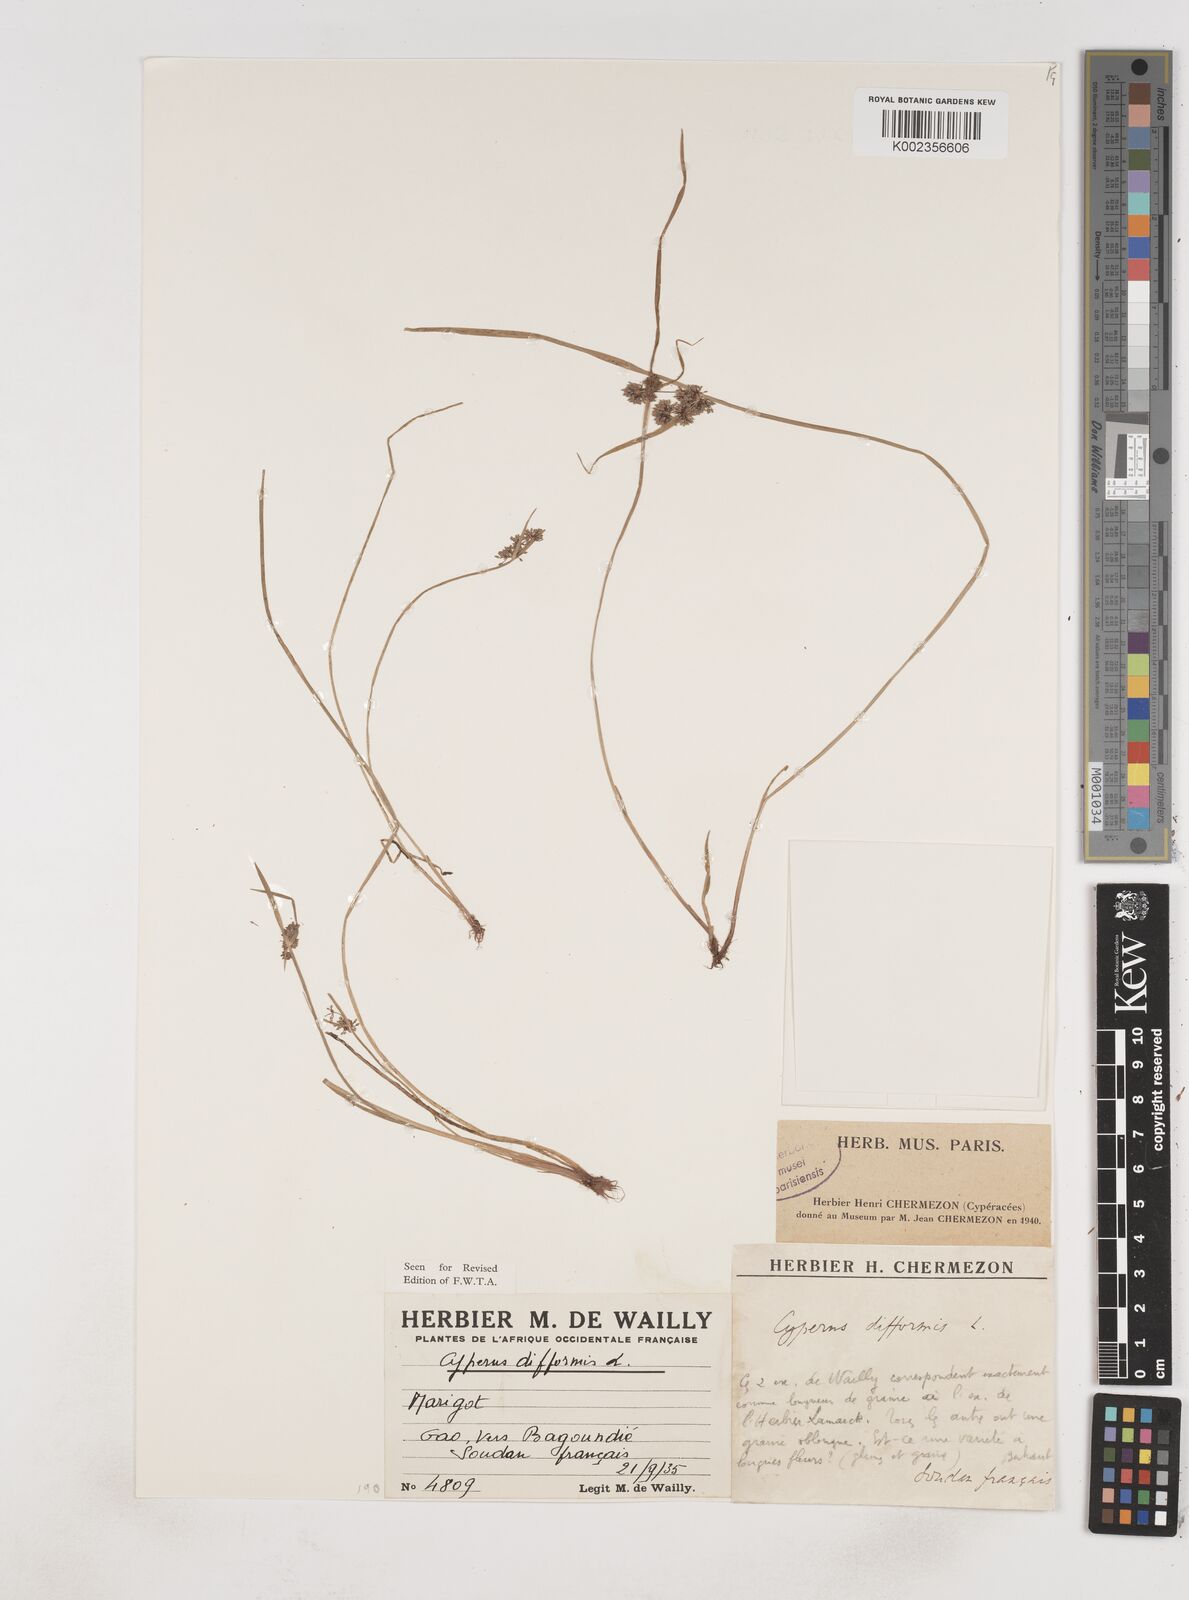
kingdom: Plantae
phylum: Tracheophyta
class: Liliopsida
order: Poales
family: Cyperaceae
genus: Cyperus
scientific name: Cyperus difformis
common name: Variable flatsedge
